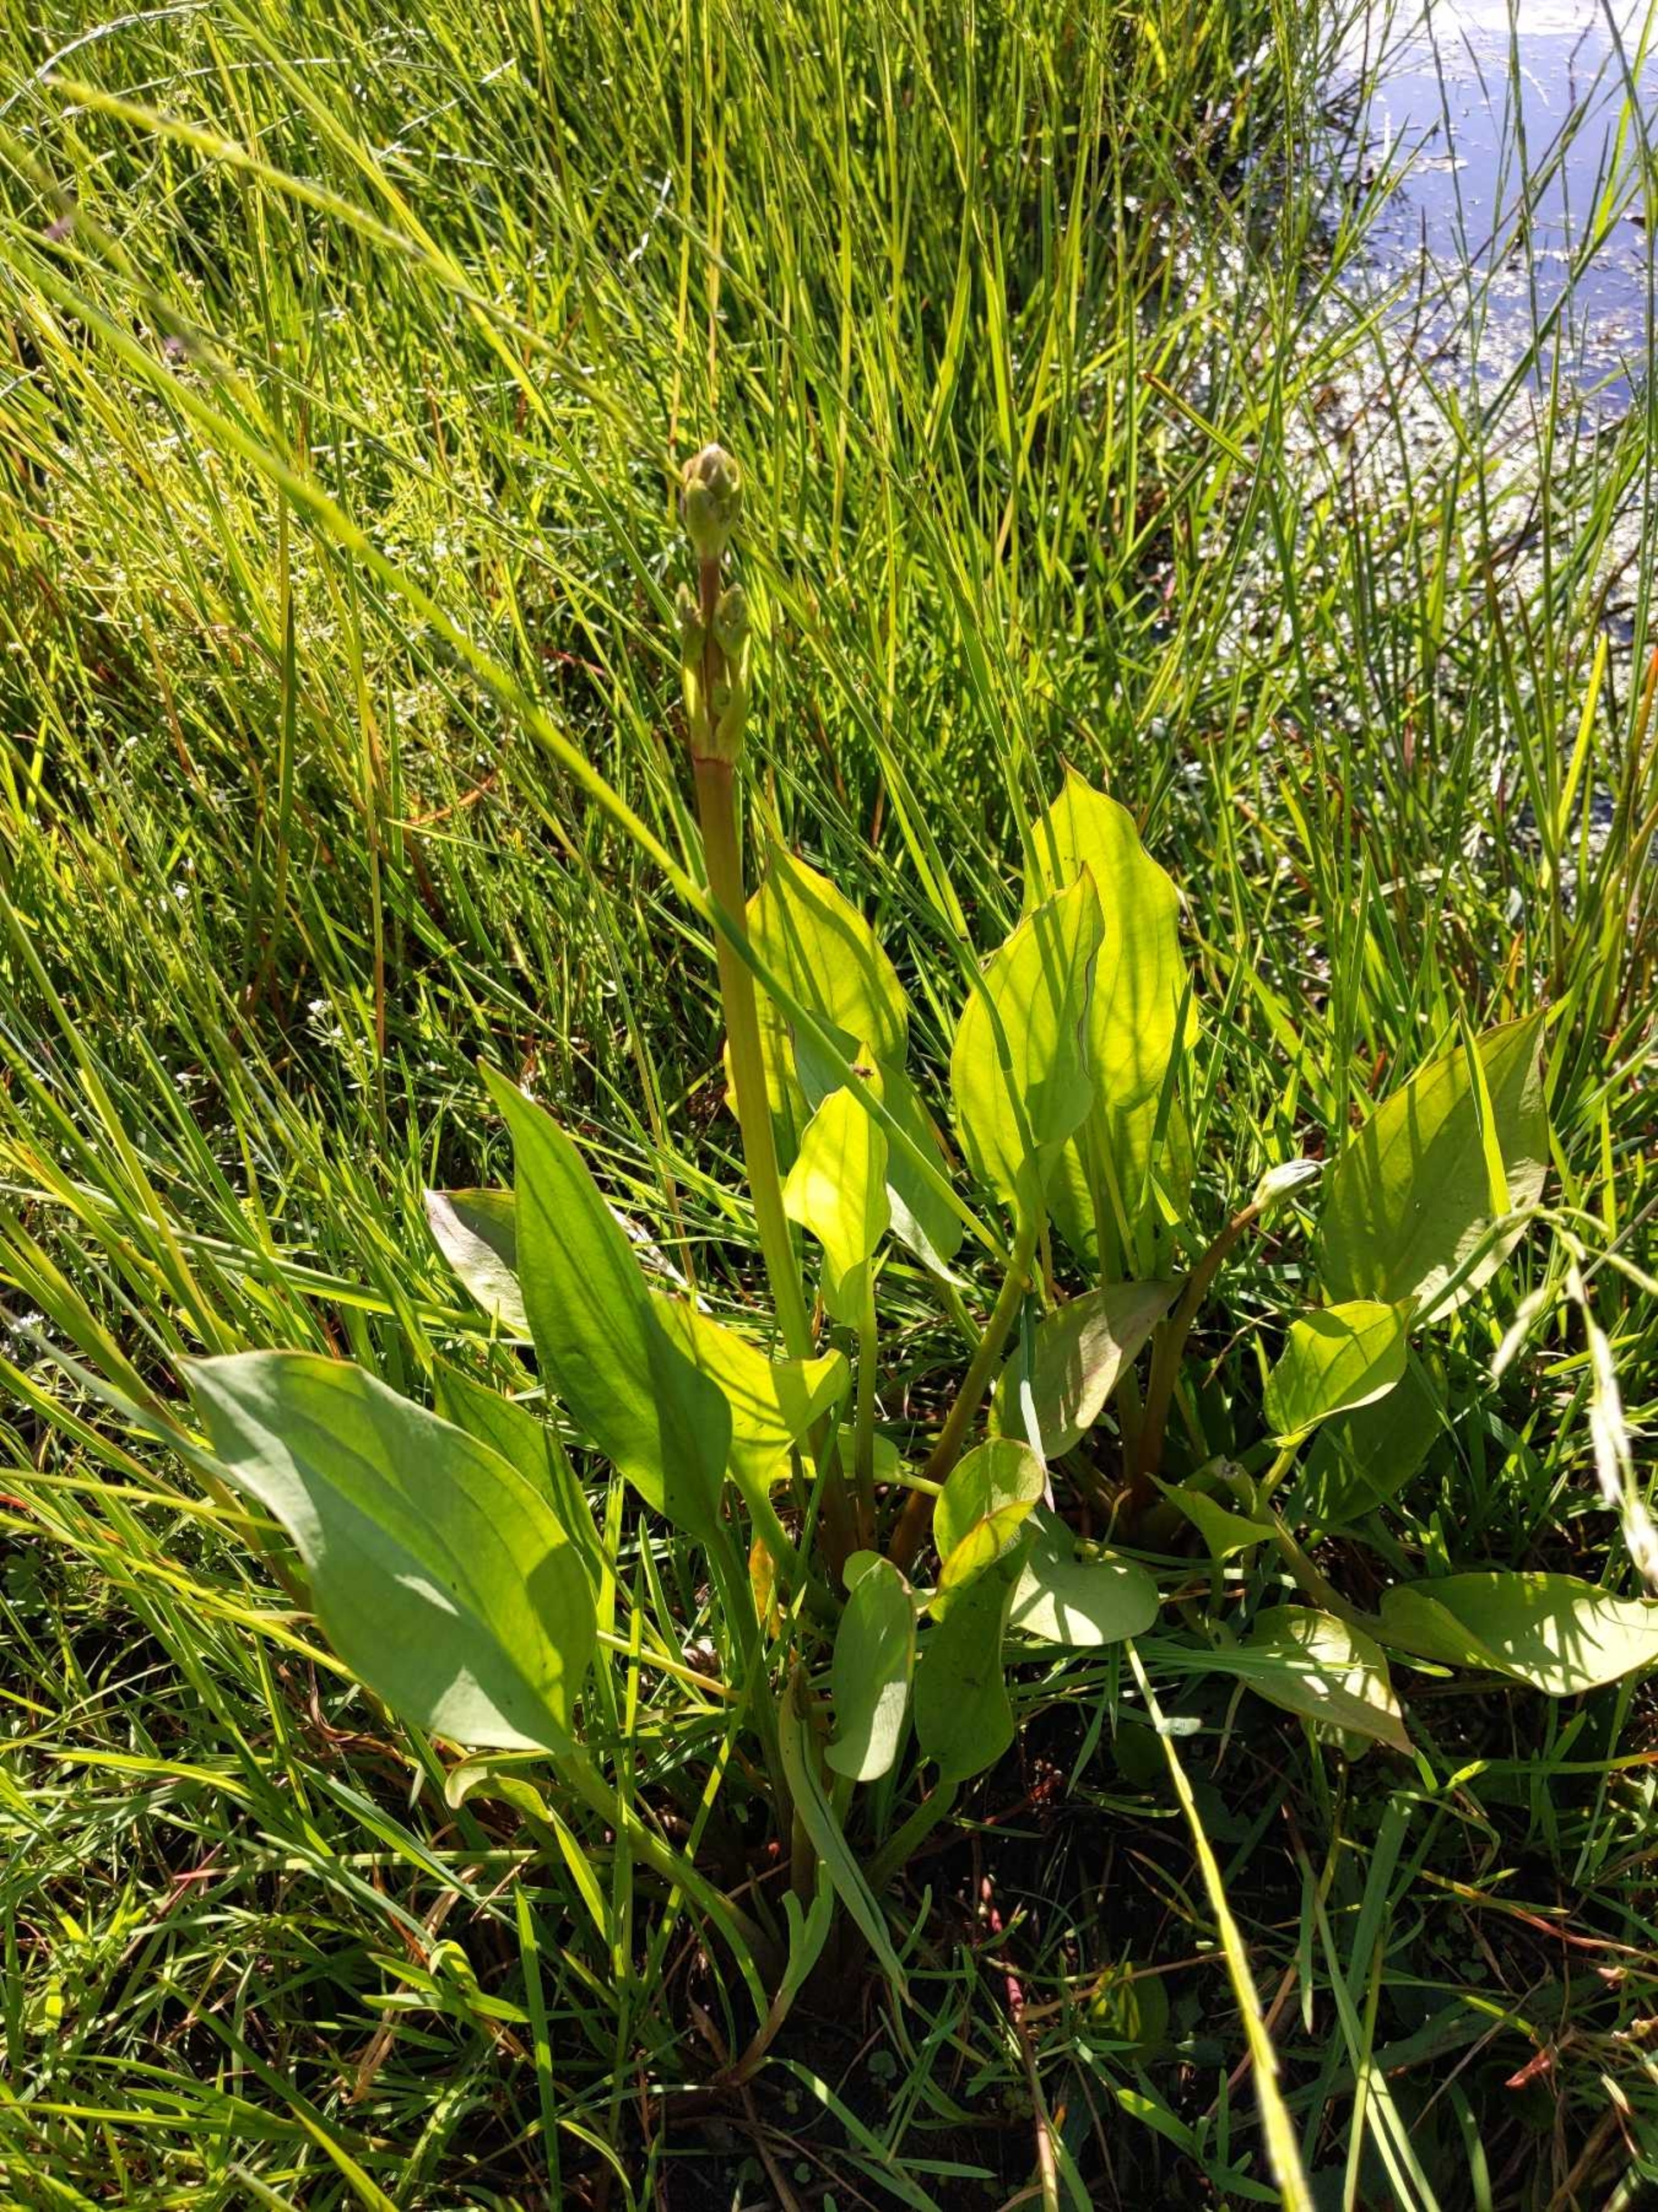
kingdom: Plantae
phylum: Tracheophyta
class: Liliopsida
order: Alismatales
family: Alismataceae
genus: Alisma
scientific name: Alisma plantago-aquatica
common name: Vejbred-skeblad
